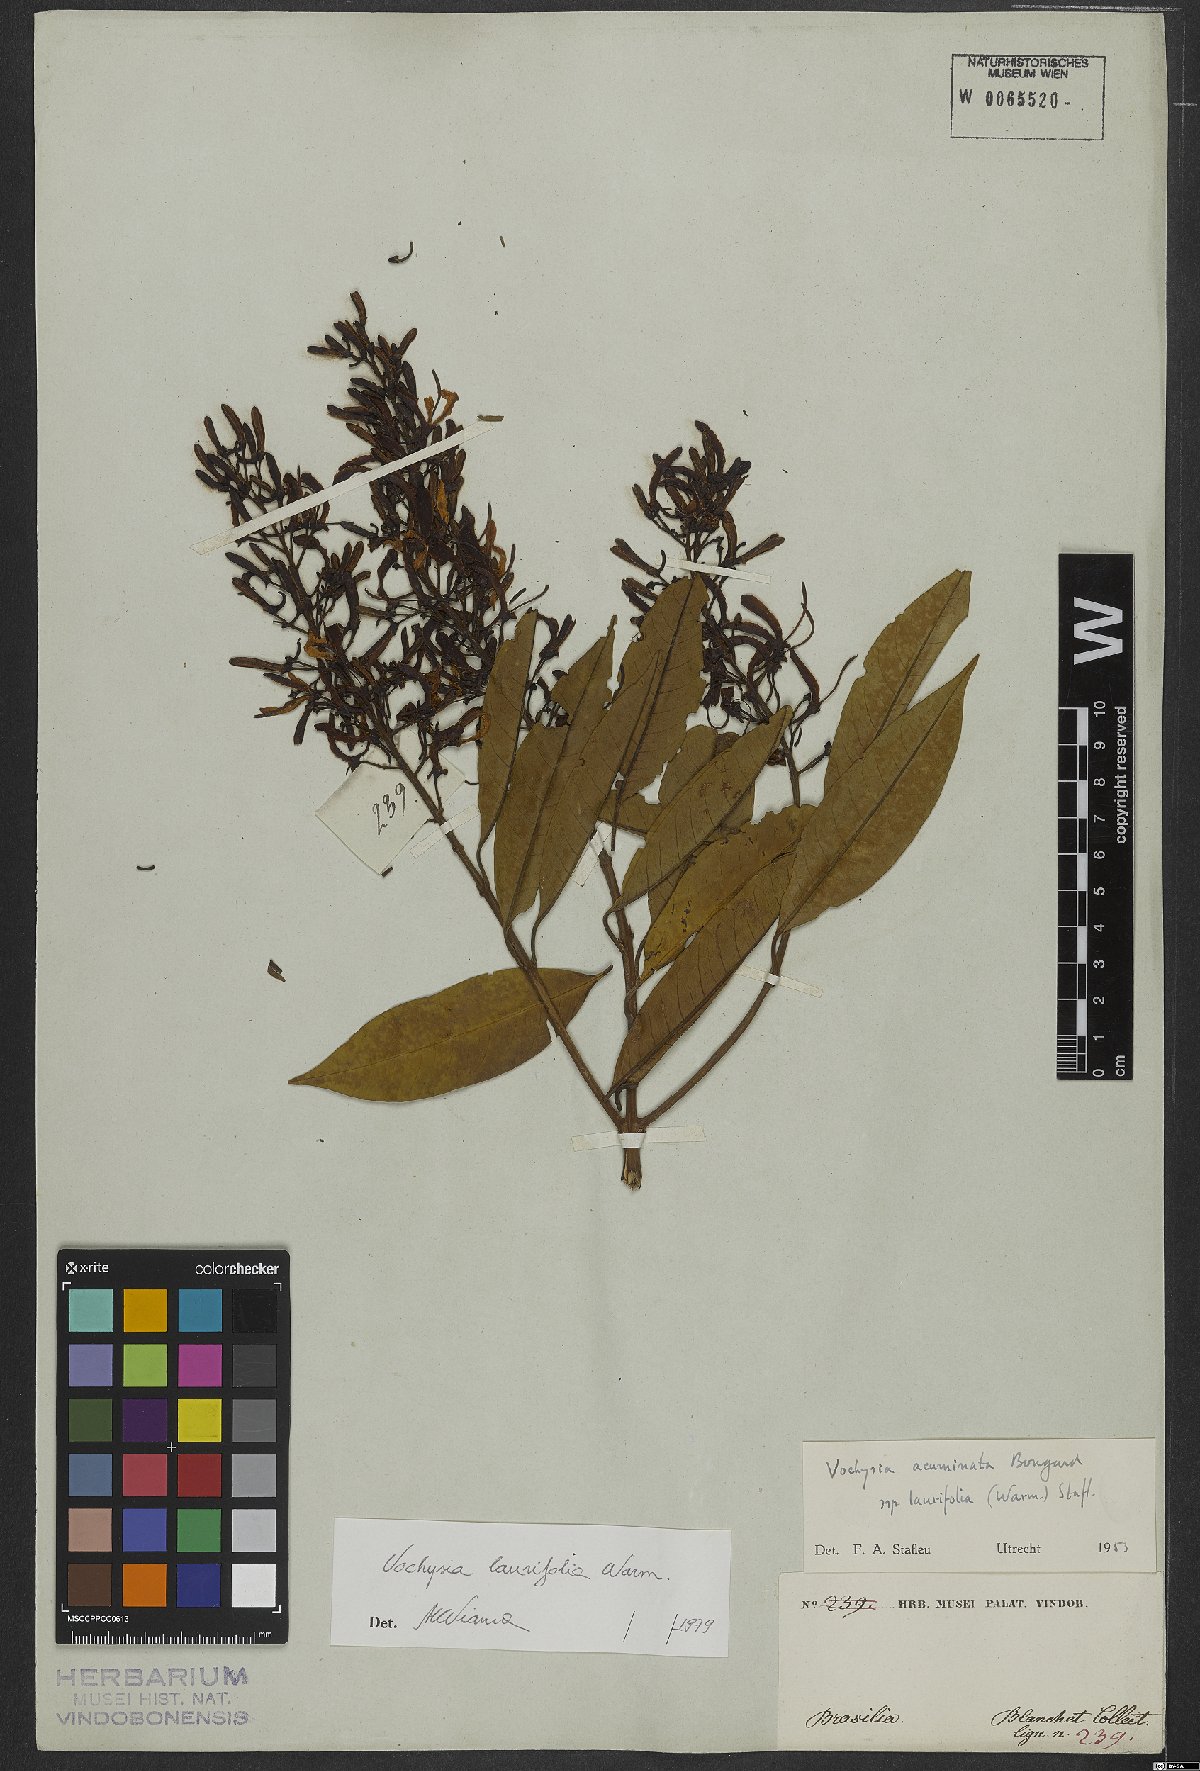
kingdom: Plantae
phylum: Tracheophyta
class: Magnoliopsida
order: Myrtales
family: Vochysiaceae
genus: Vochysia
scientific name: Vochysia laurifolia
